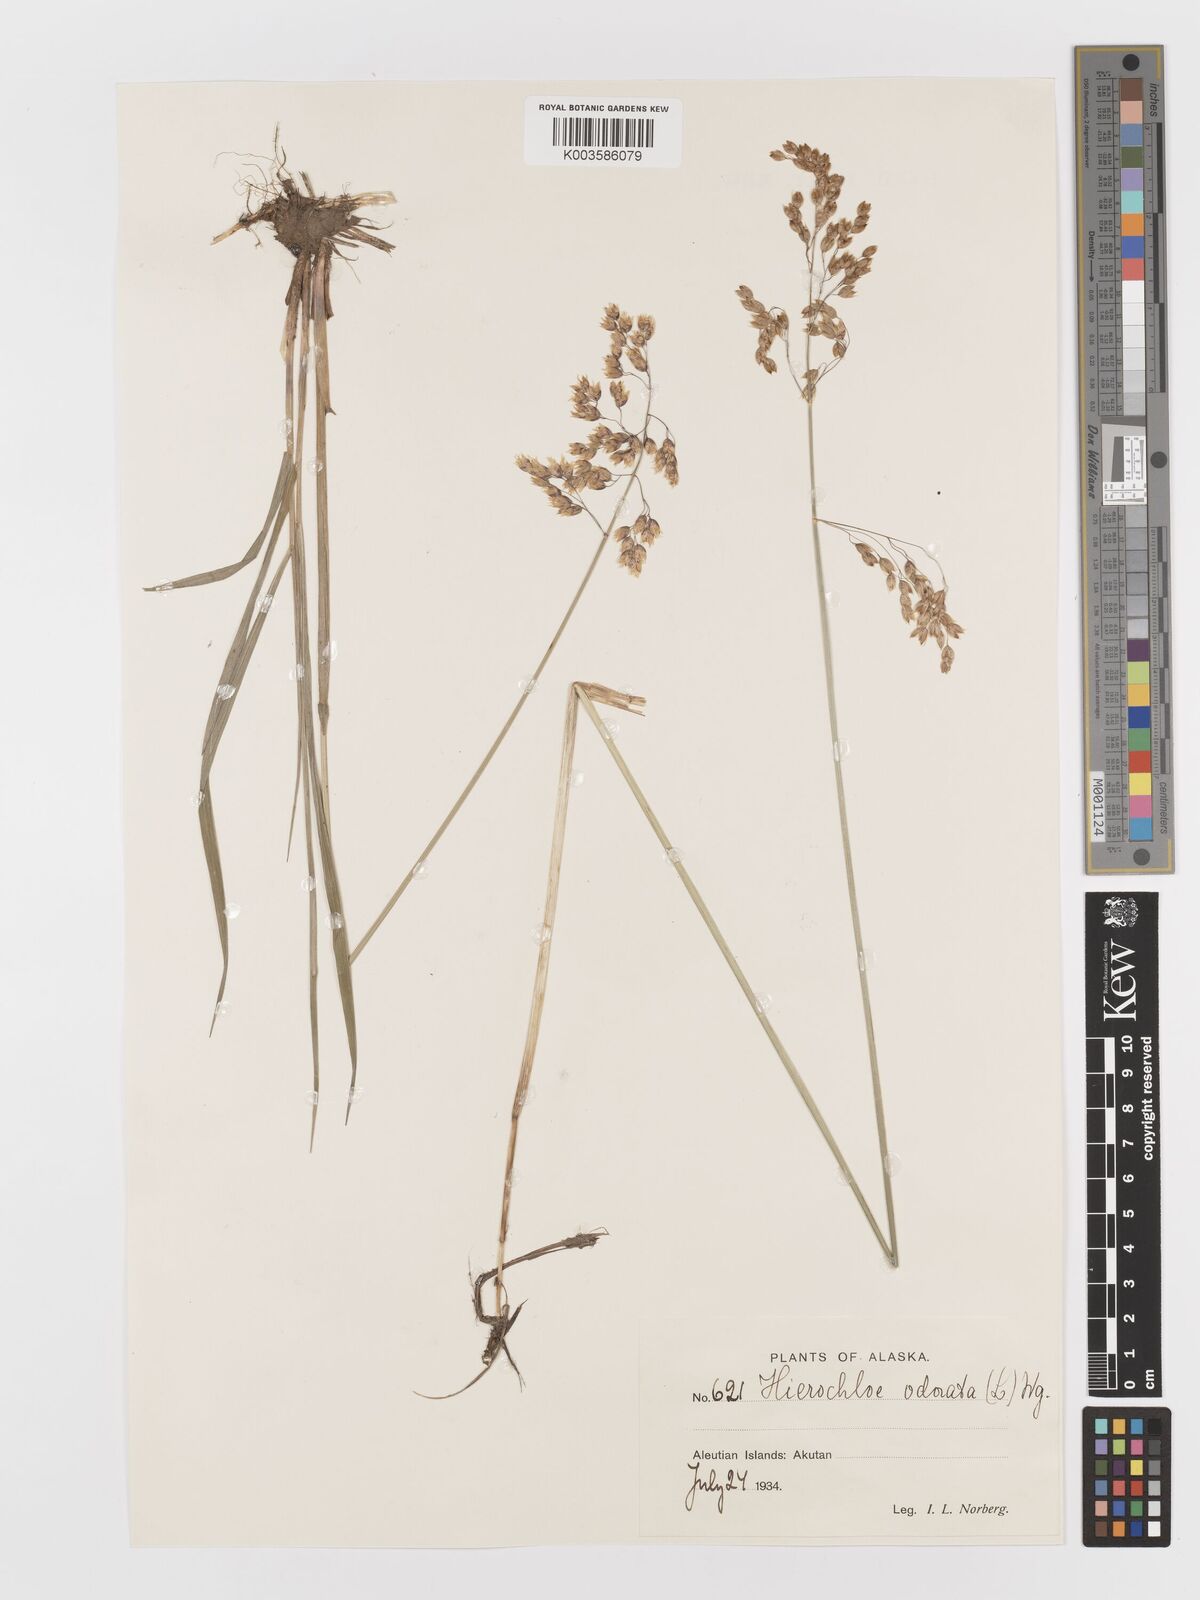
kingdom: Plantae
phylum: Tracheophyta
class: Liliopsida
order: Poales
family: Poaceae
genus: Anthoxanthum
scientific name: Anthoxanthum nitens
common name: Holy grass
